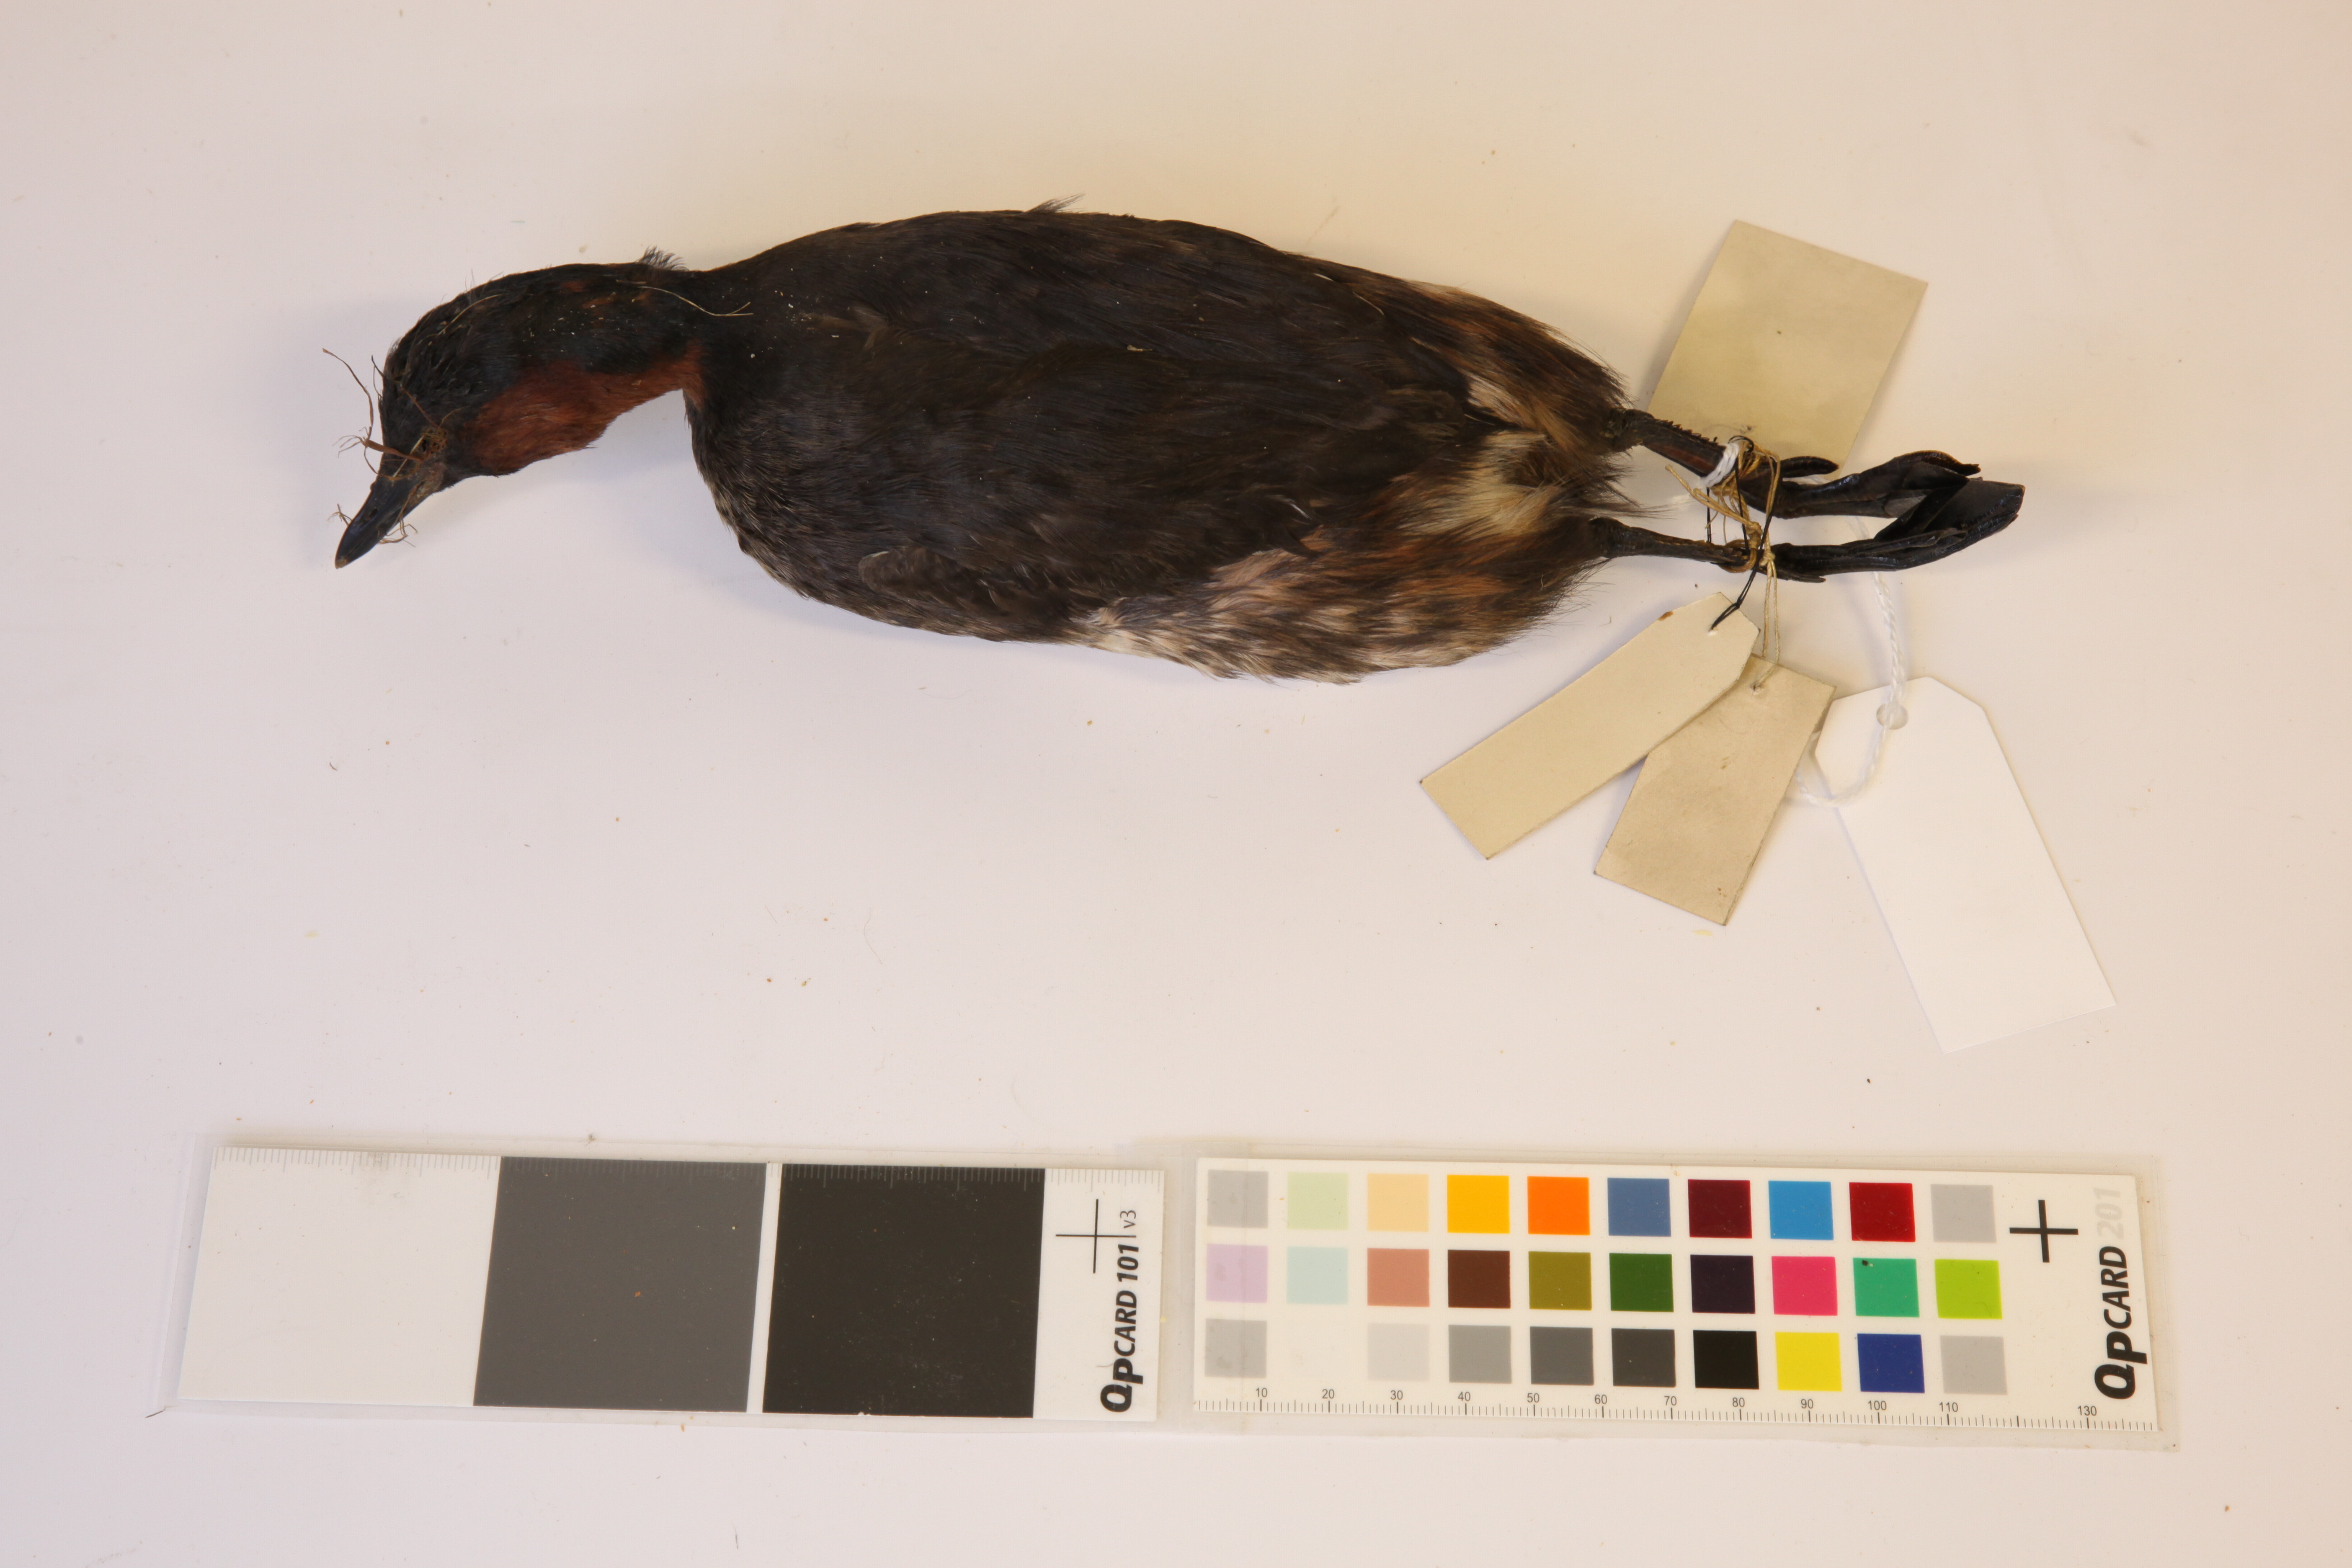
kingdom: Animalia
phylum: Chordata
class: Aves
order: Podicipediformes
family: Podicipedidae
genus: Tachybaptus
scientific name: Tachybaptus ruficollis
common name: Little grebe
